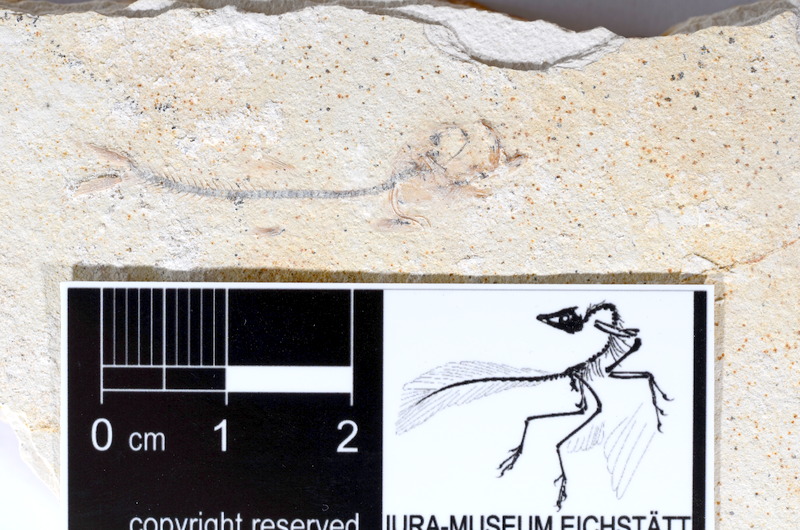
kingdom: Animalia
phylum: Chordata
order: Salmoniformes
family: Orthogonikleithridae
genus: Orthogonikleithrus
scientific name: Orthogonikleithrus hoelli
